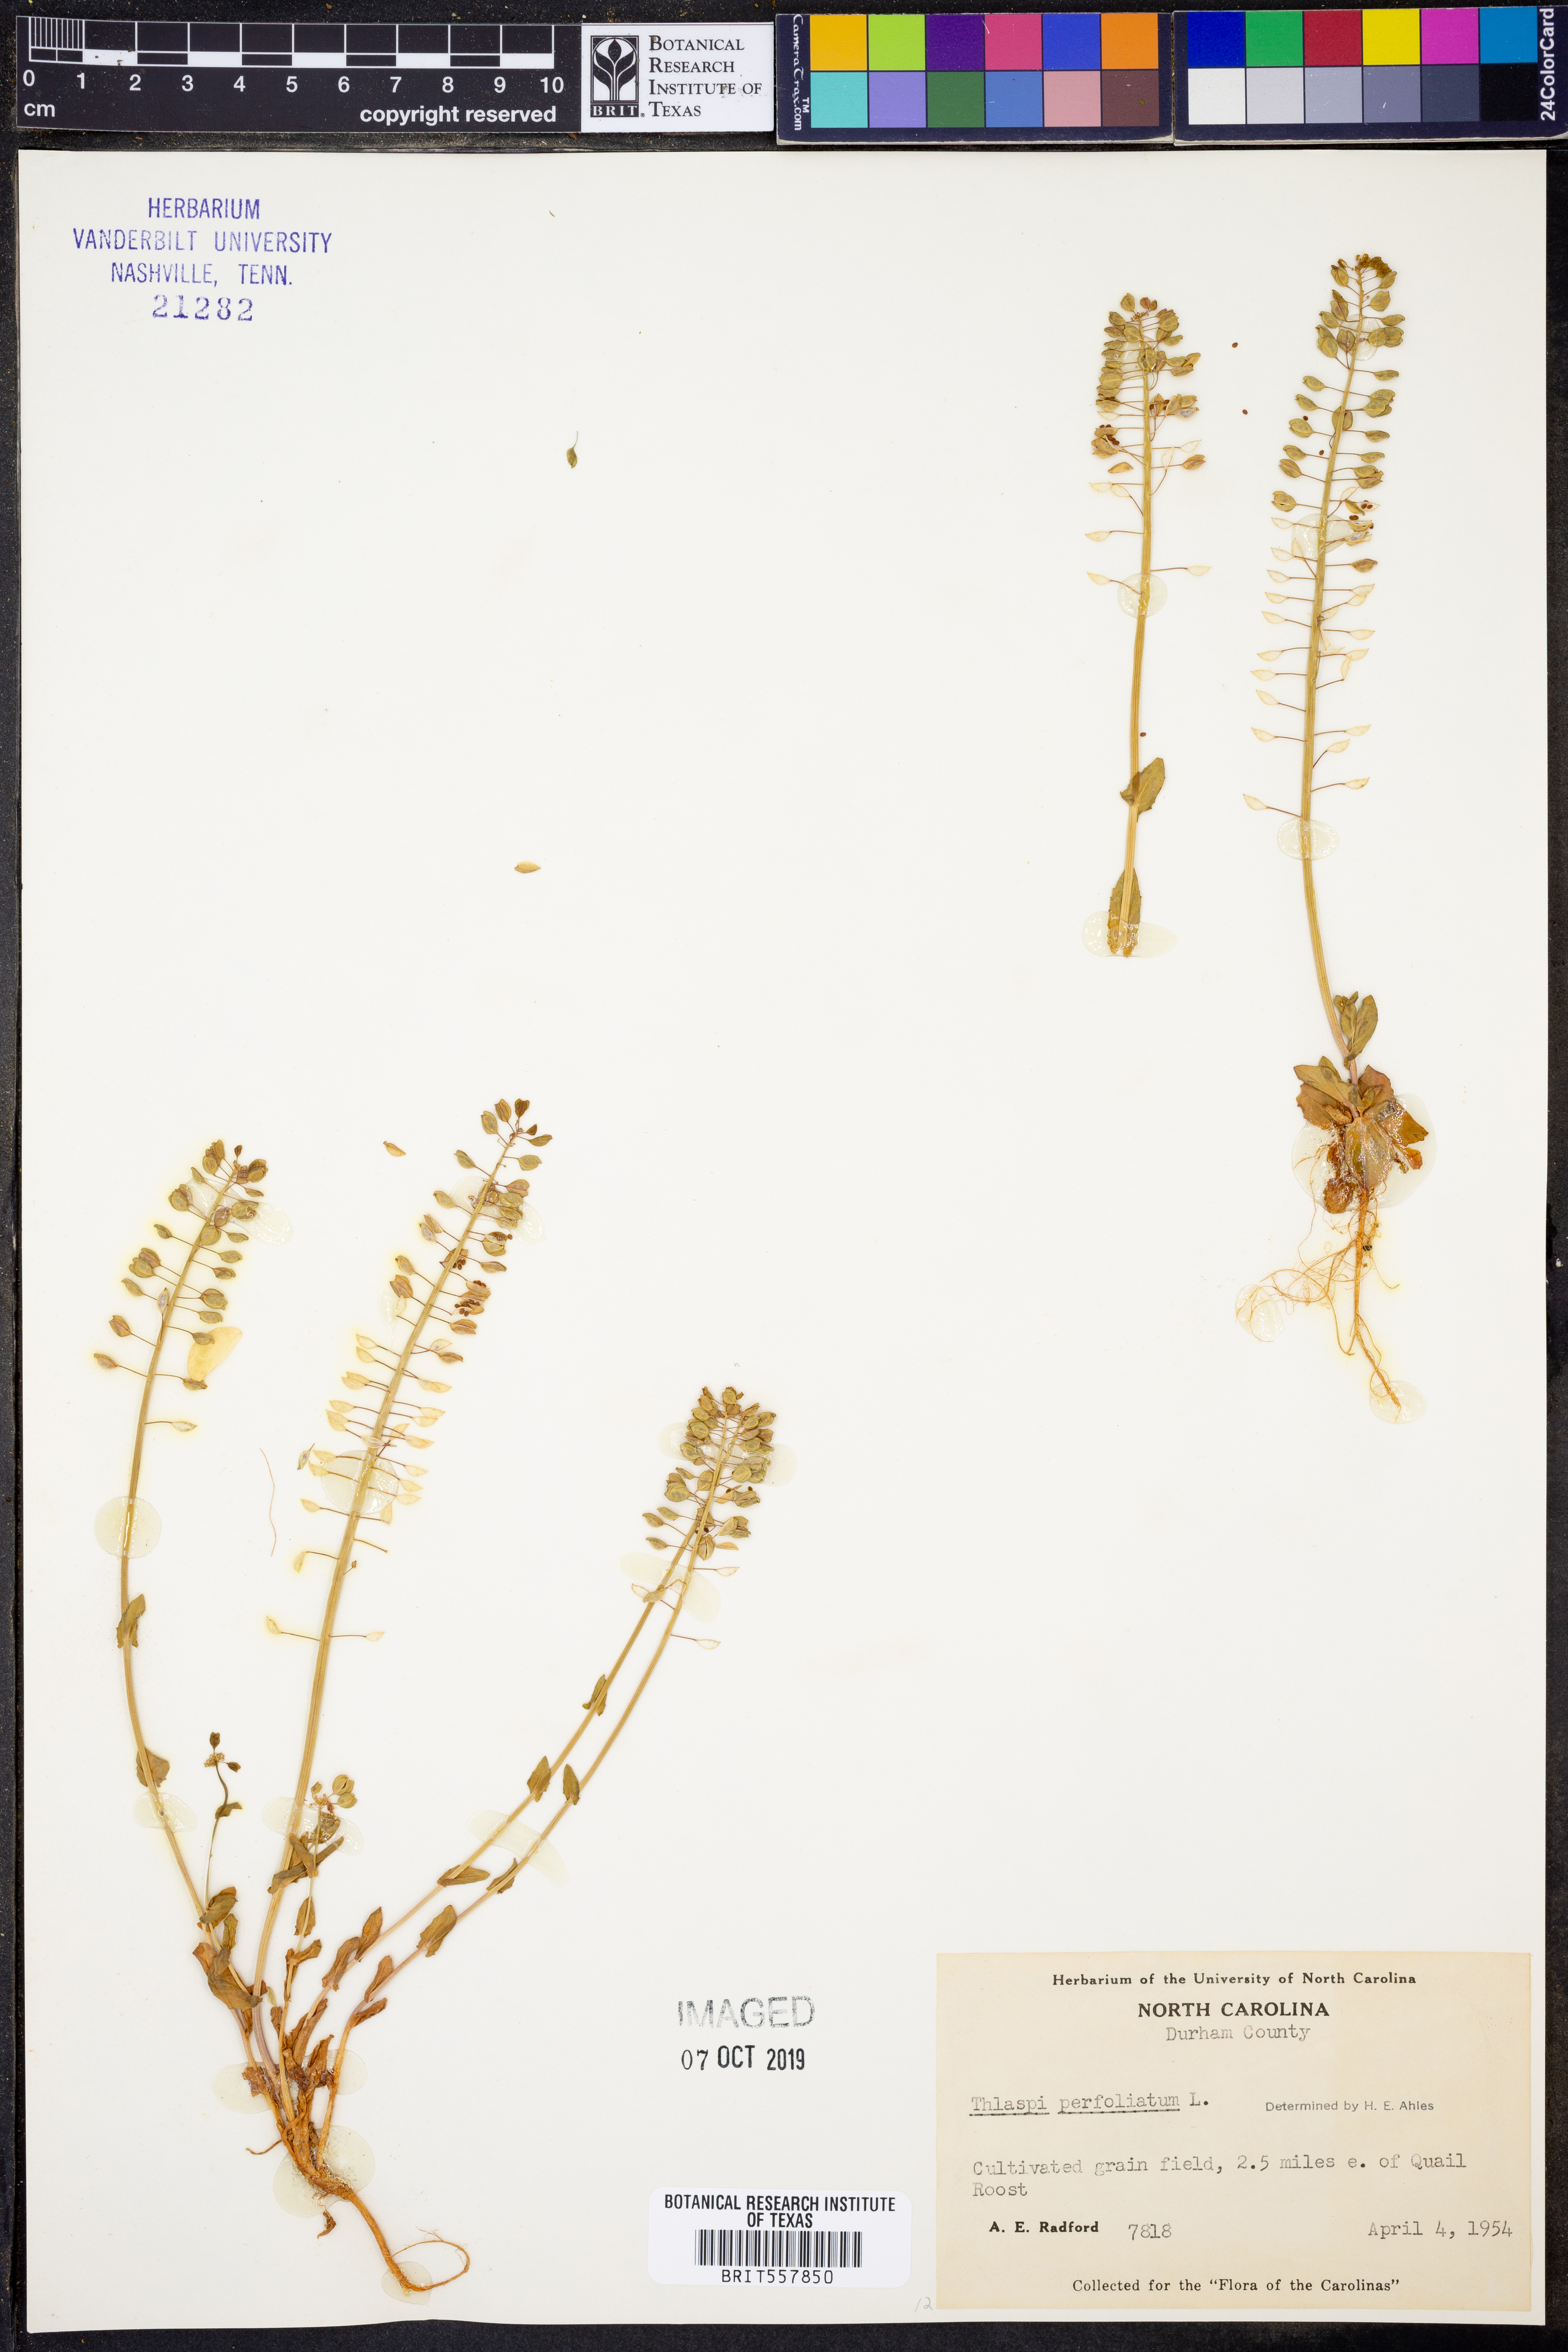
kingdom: Plantae
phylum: Tracheophyta
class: Magnoliopsida
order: Brassicales
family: Brassicaceae
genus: Noccaea
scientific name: Noccaea perfoliata
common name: Perfoliate pennycress
